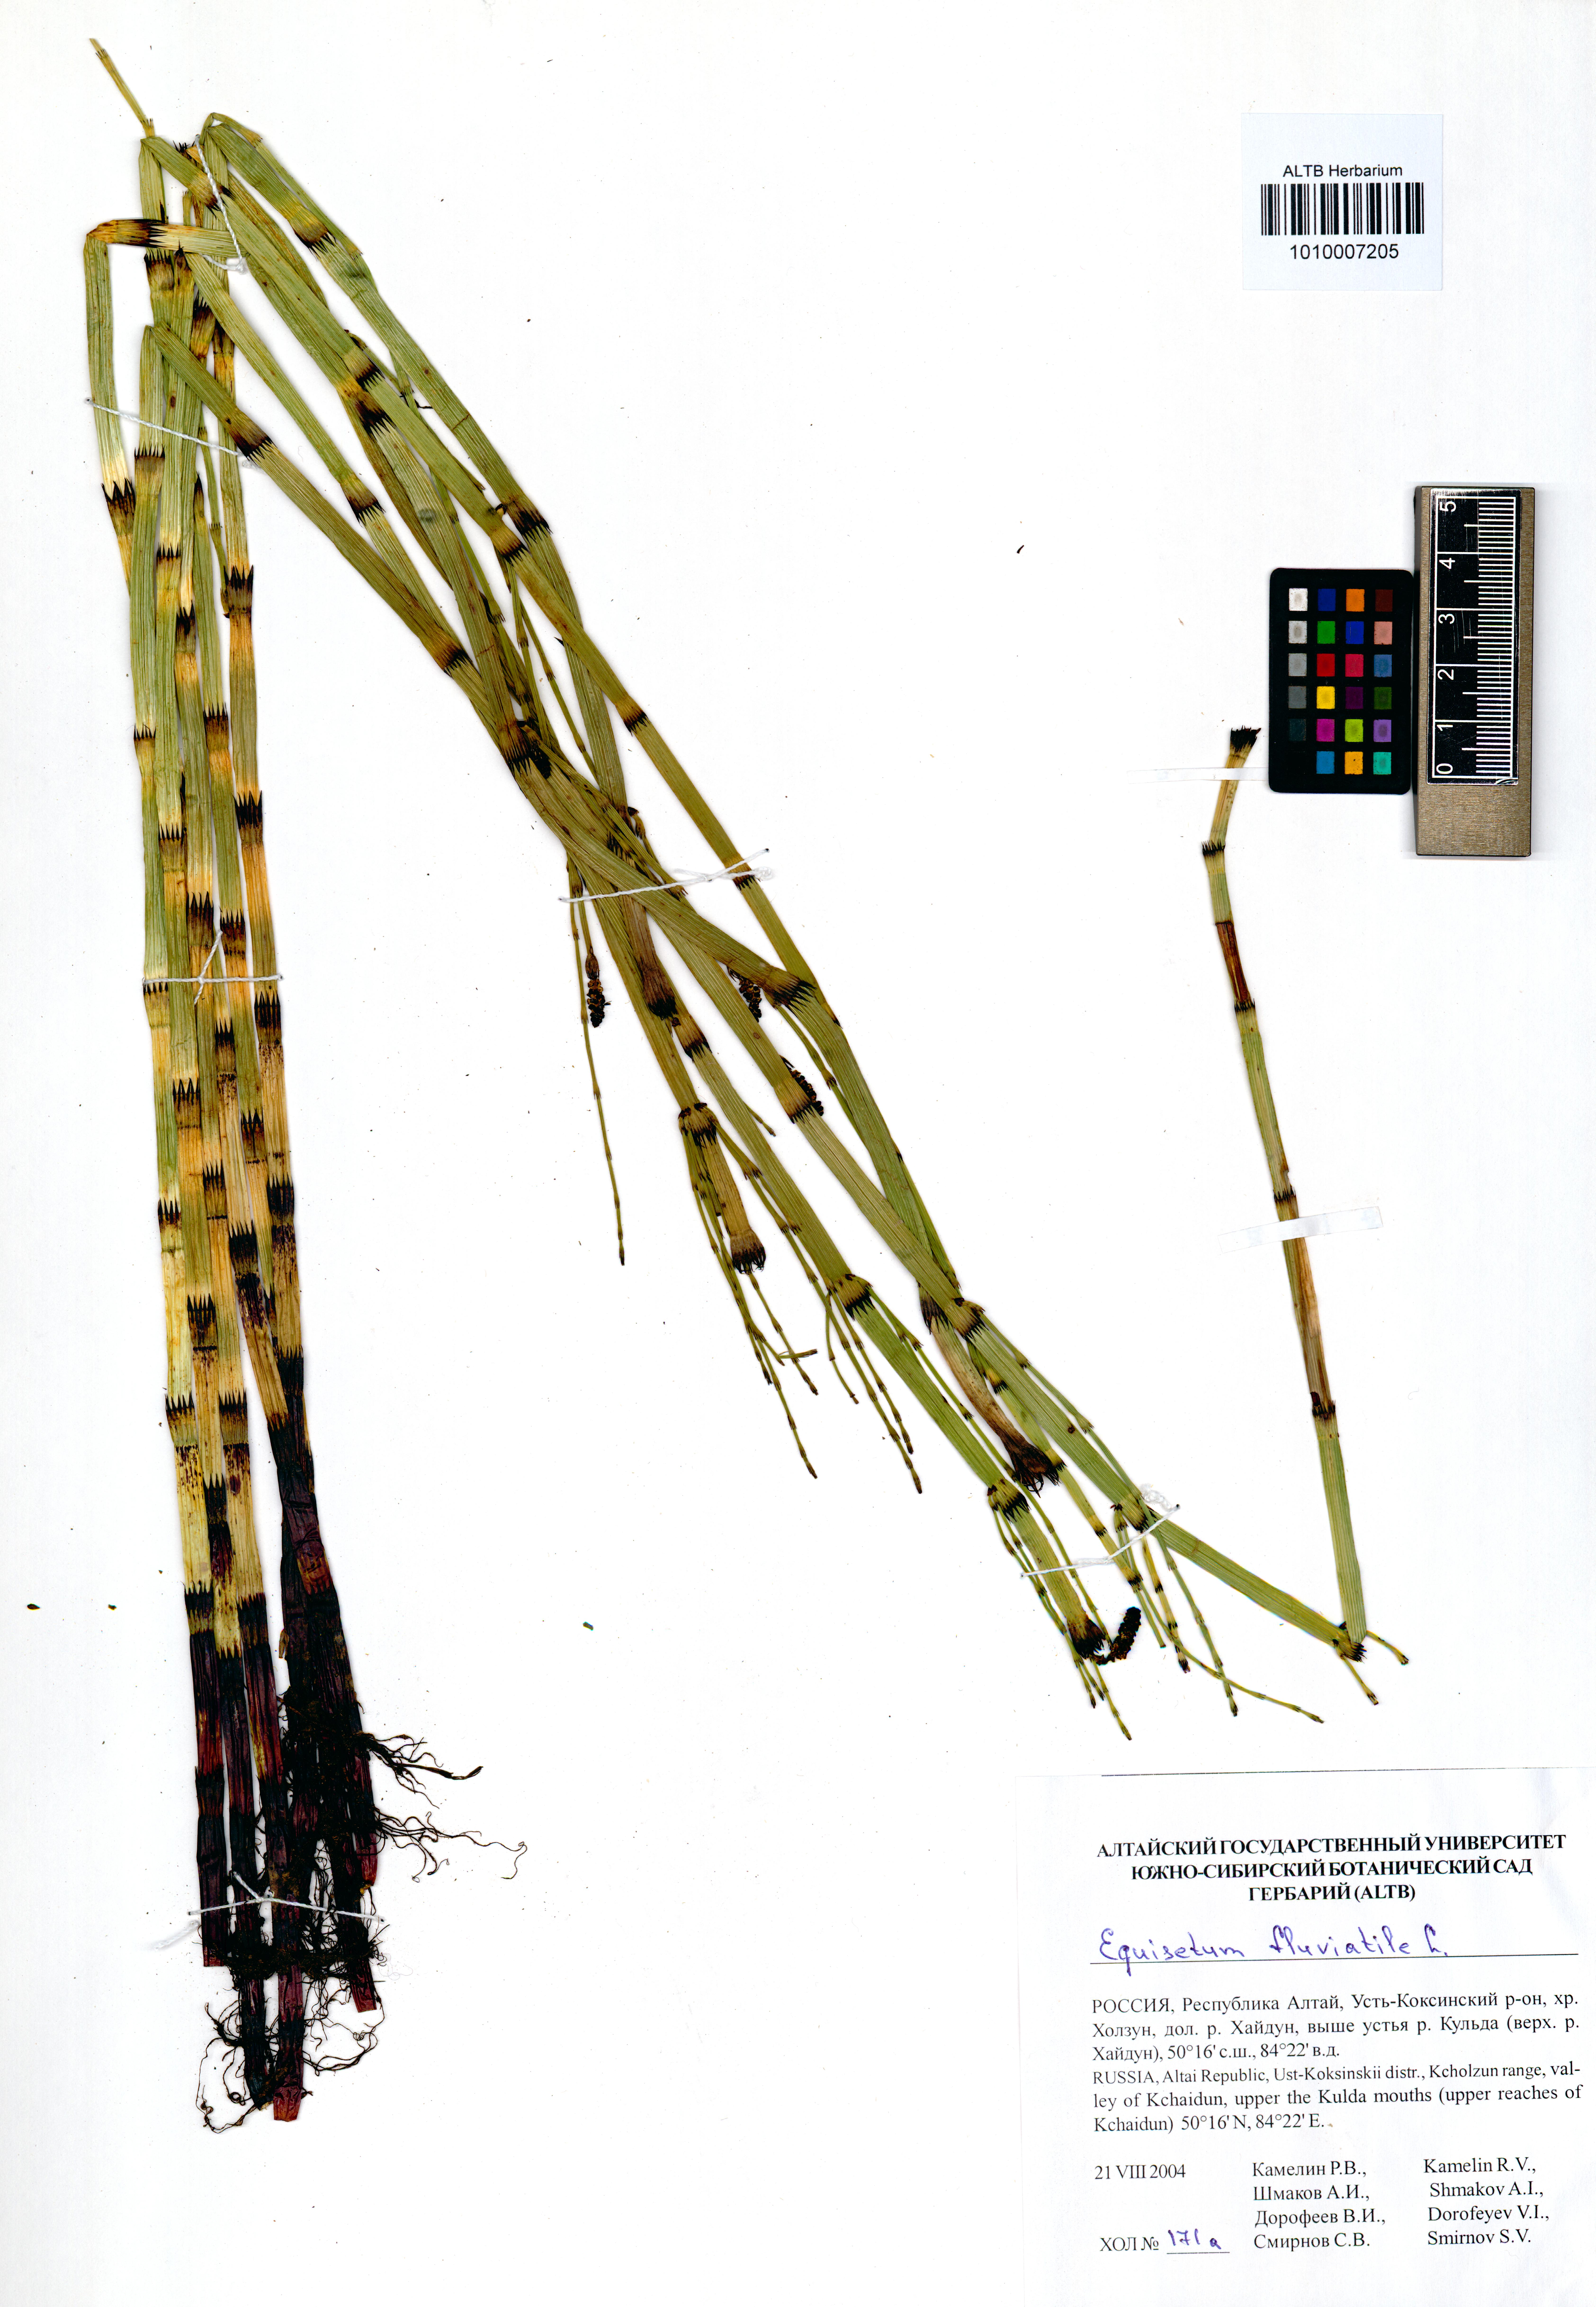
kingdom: Plantae
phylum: Tracheophyta
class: Polypodiopsida
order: Equisetales
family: Equisetaceae
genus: Equisetum
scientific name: Equisetum fluviatile
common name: Water horsetail
